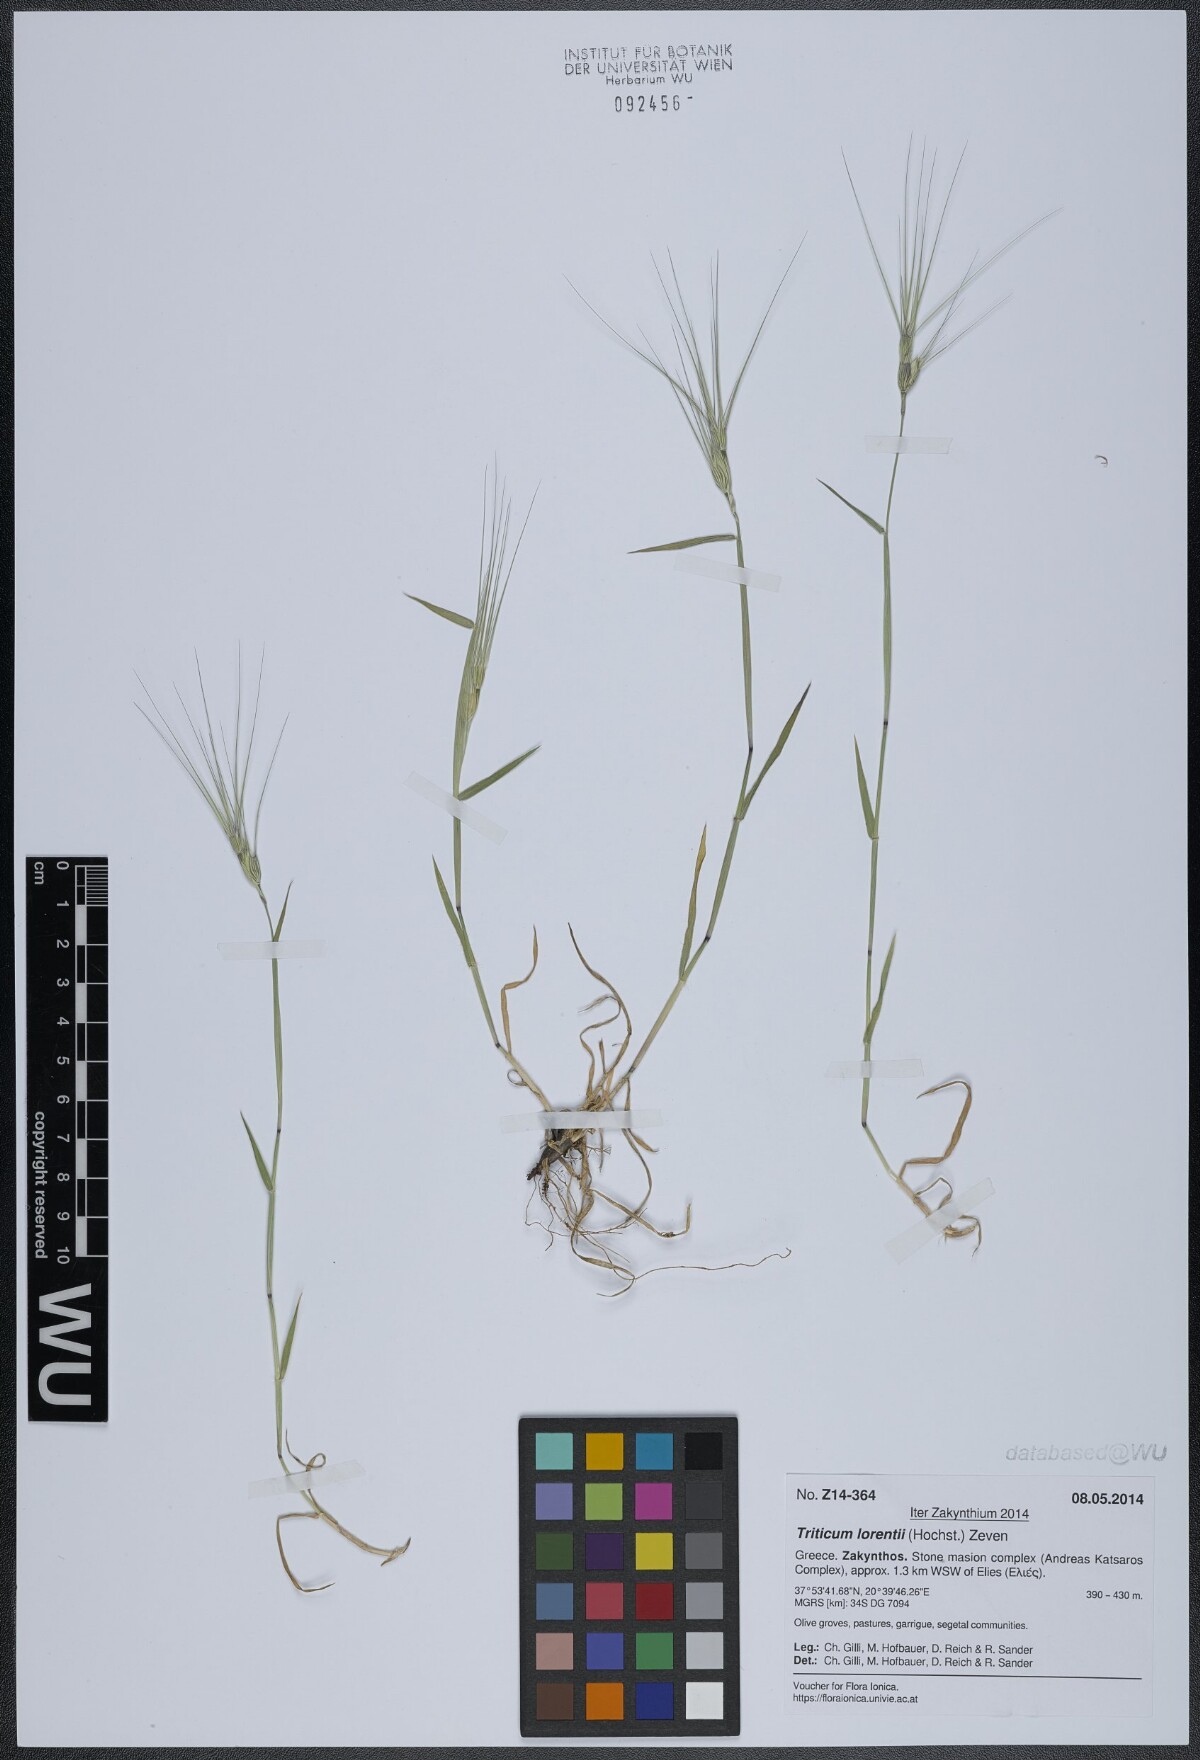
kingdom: Plantae
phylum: Tracheophyta
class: Liliopsida
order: Poales
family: Poaceae
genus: Aegilops
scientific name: Aegilops biuncialis
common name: Mediterranean aegilops
